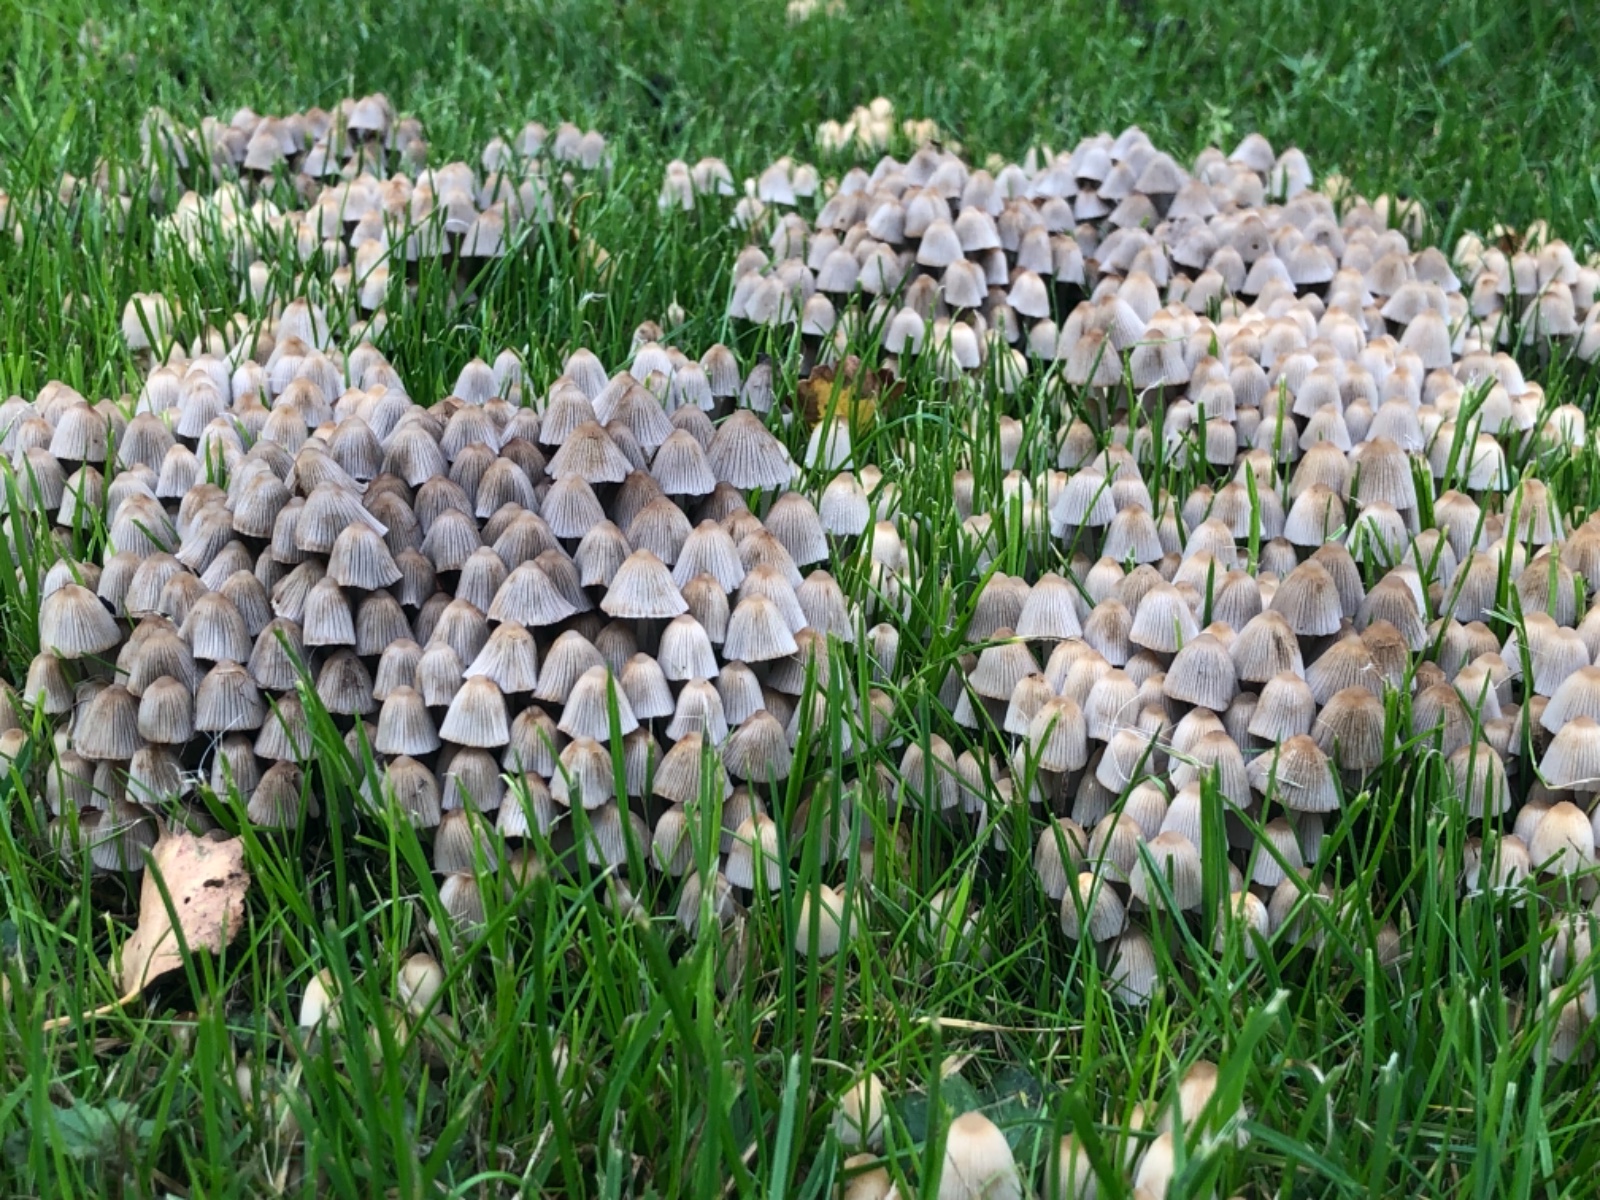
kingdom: Fungi
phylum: Basidiomycota
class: Agaricomycetes
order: Agaricales
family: Psathyrellaceae
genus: Coprinellus
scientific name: Coprinellus disseminatus
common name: bredsået blækhat
